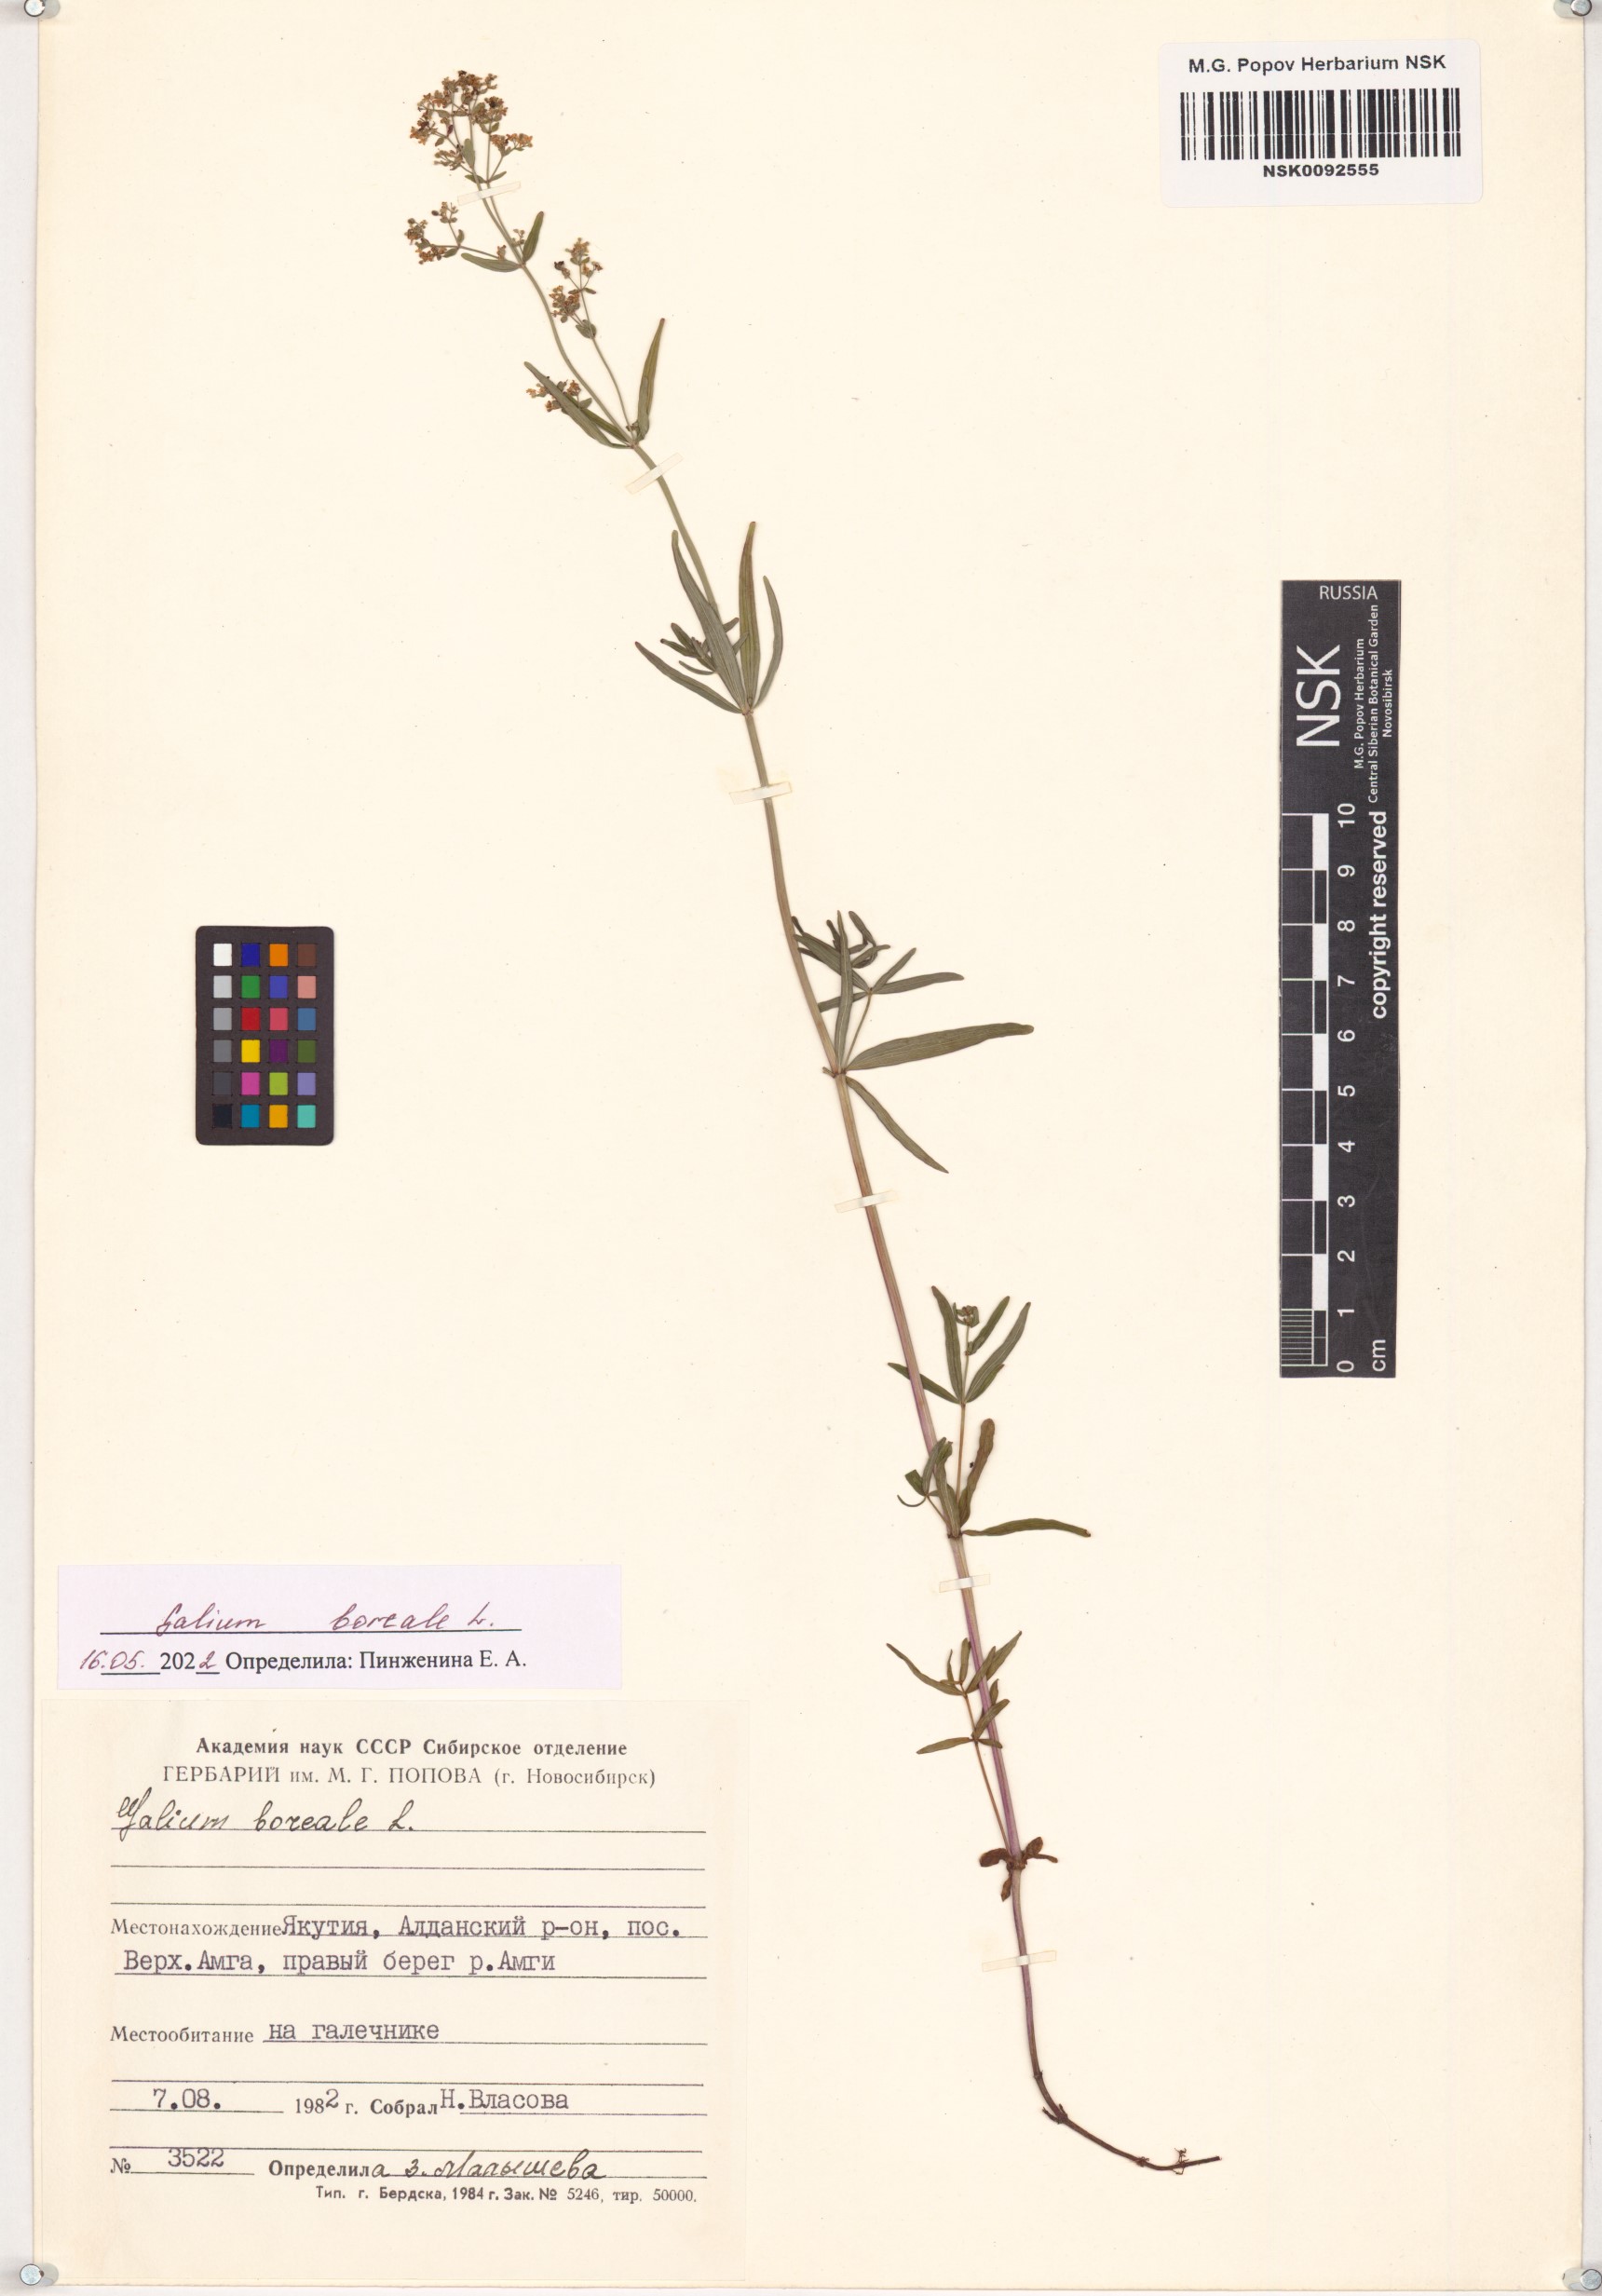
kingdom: Plantae
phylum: Tracheophyta
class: Magnoliopsida
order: Gentianales
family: Rubiaceae
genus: Galium
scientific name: Galium boreale
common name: Northern bedstraw
